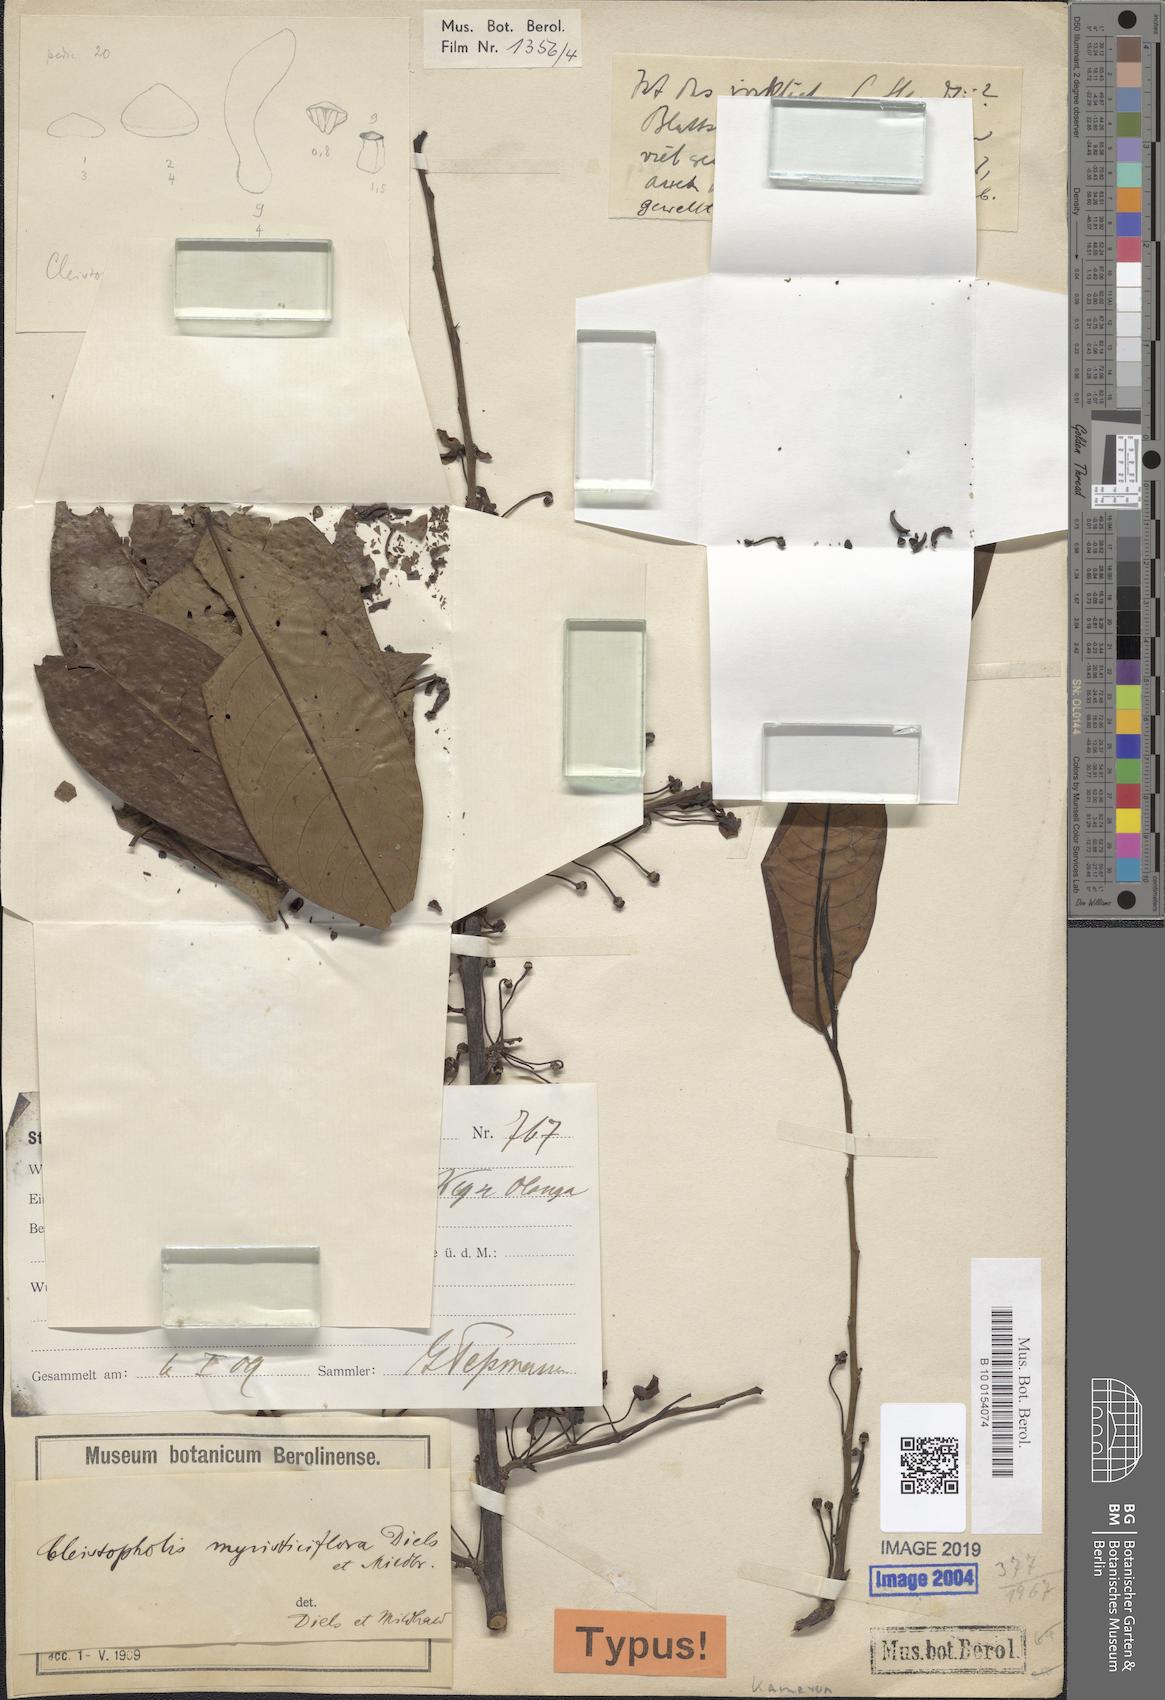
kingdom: Plantae
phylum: Tracheophyta
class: Magnoliopsida
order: Magnoliales
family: Annonaceae
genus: Cleistopholis
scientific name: Cleistopholis myristiciflora
